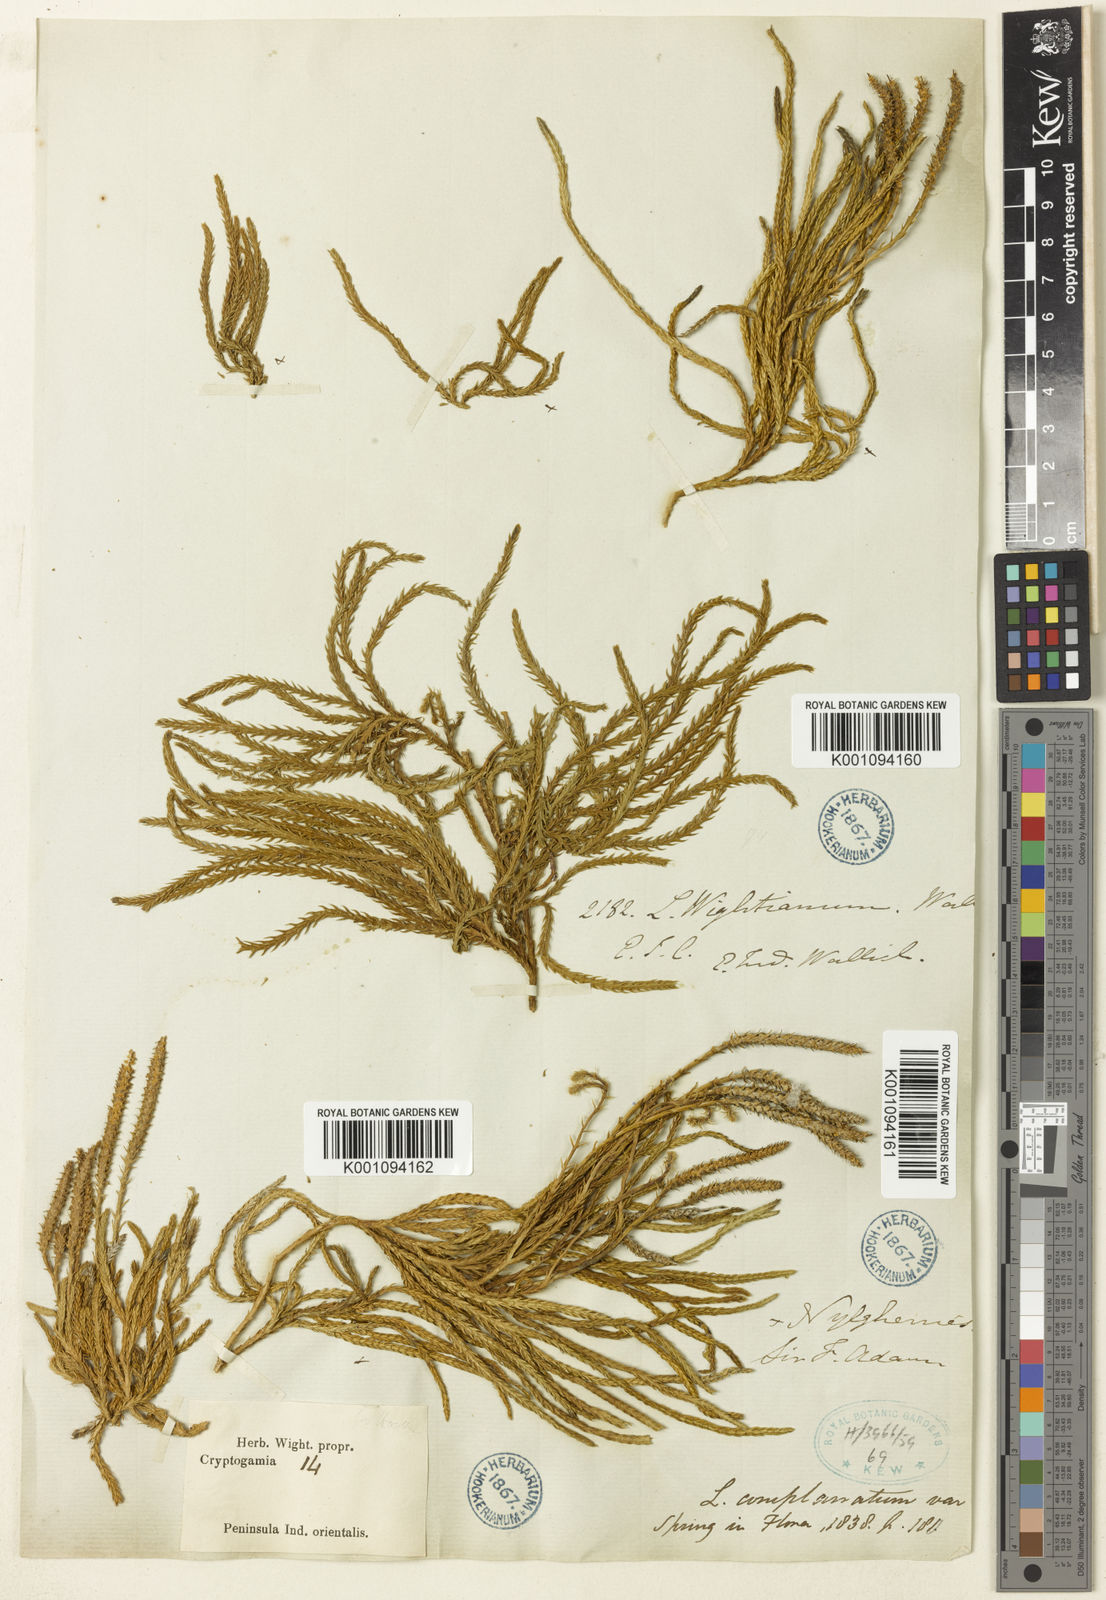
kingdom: Plantae
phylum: Tracheophyta
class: Lycopodiopsida
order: Lycopodiales
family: Lycopodiaceae
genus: Lycopodium
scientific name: Lycopodium
